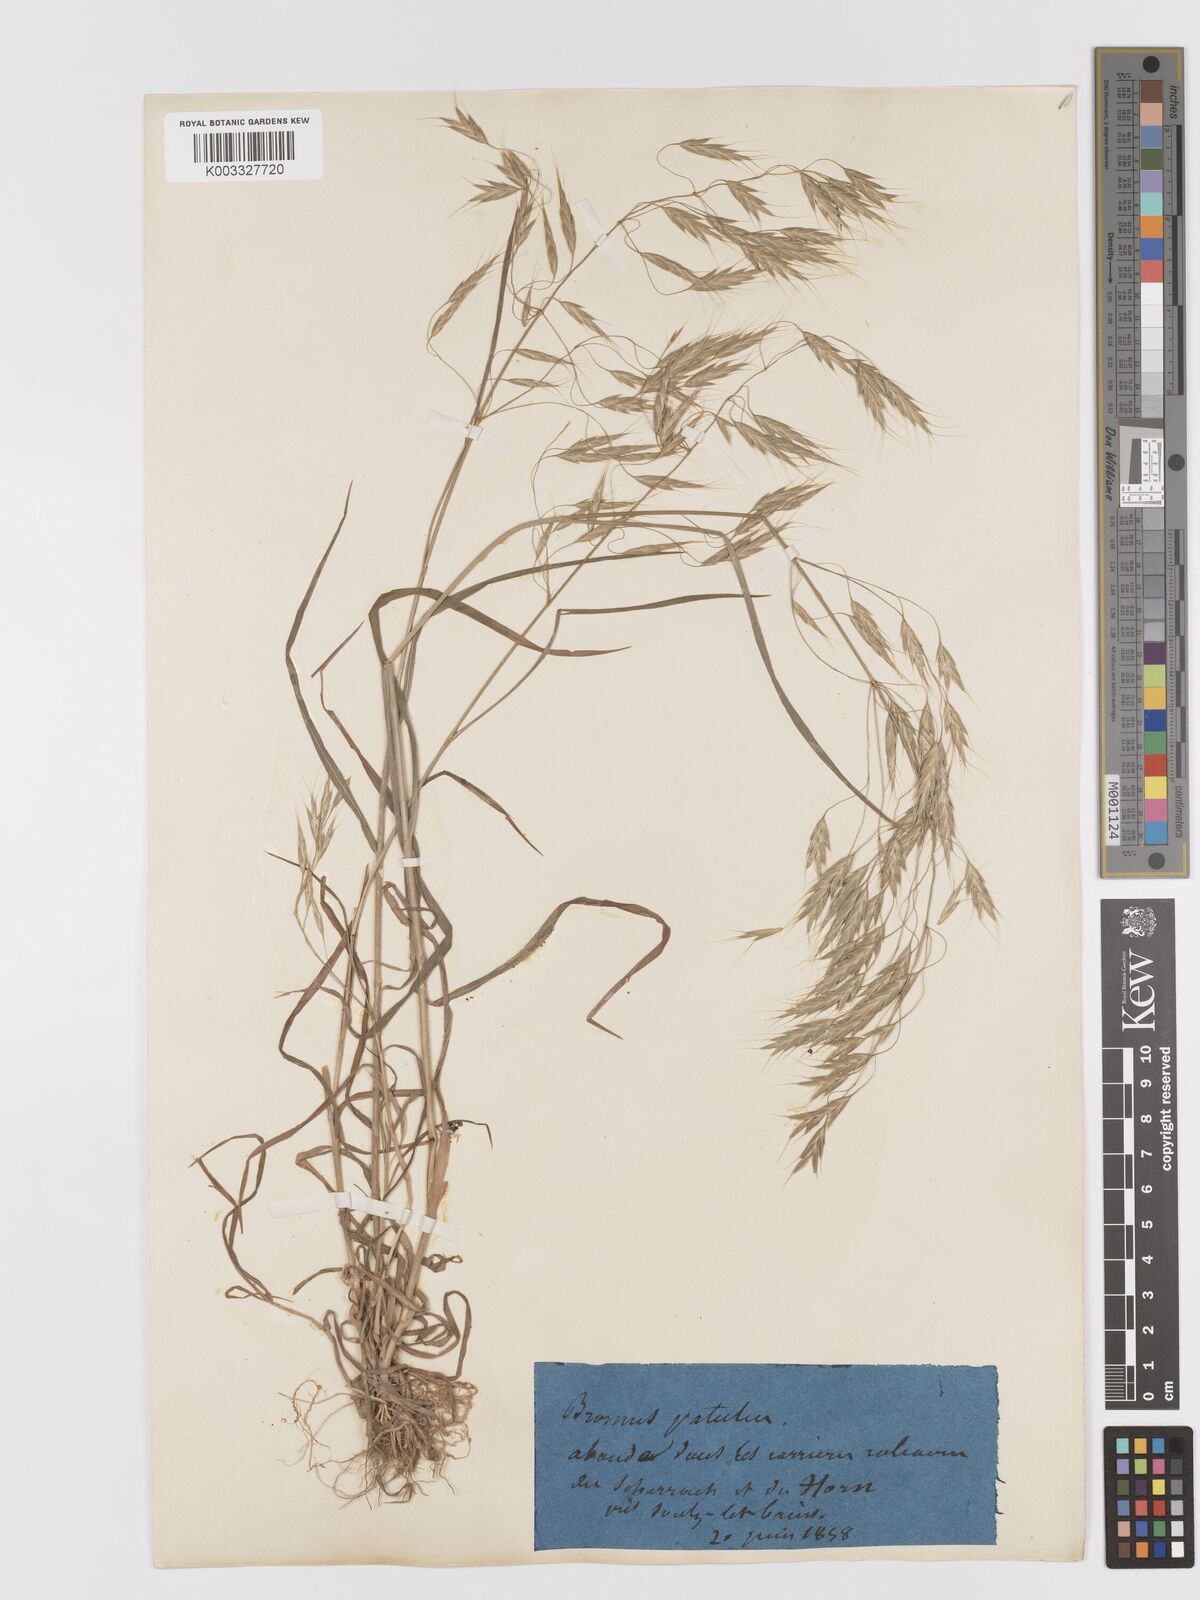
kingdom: Plantae
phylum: Tracheophyta
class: Liliopsida
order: Poales
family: Poaceae
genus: Bromus
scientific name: Bromus japonicus
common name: Japanese brome
